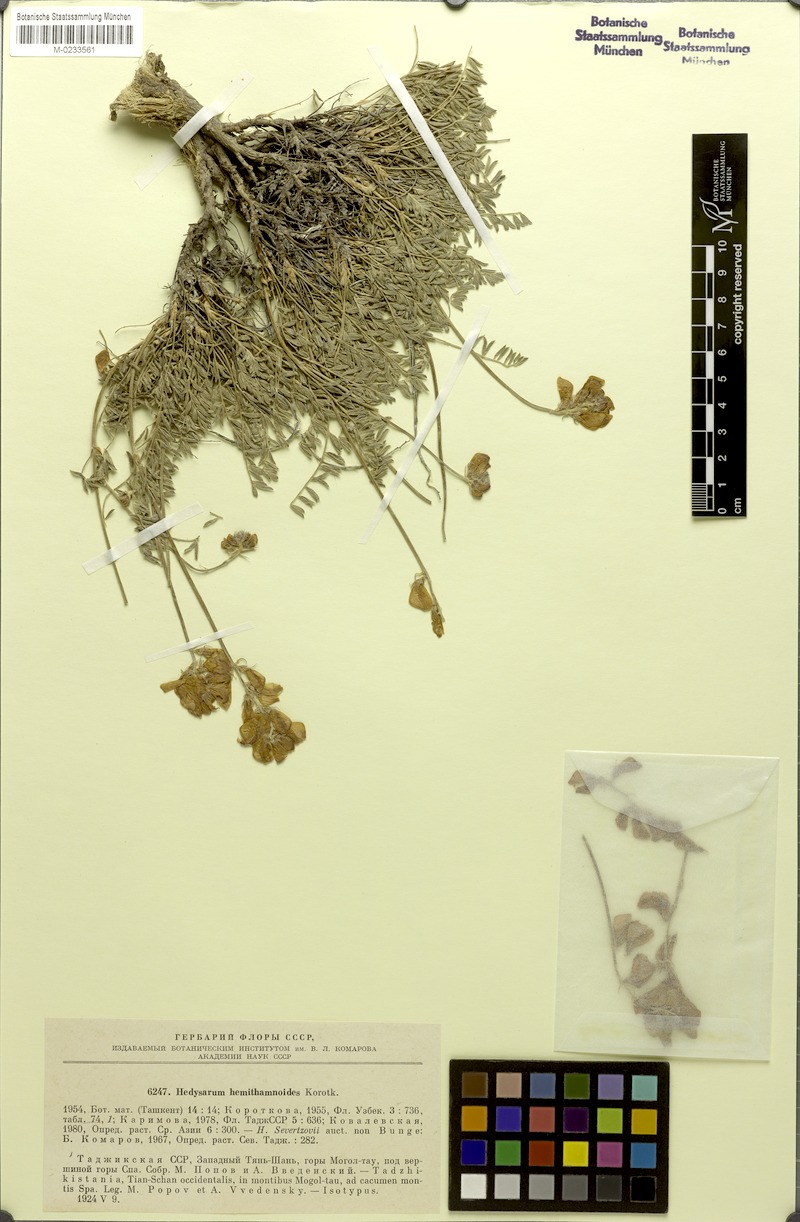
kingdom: Plantae
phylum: Tracheophyta
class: Magnoliopsida
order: Fabales
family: Fabaceae
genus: Hedysarum
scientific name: Hedysarum hemithamnoides
